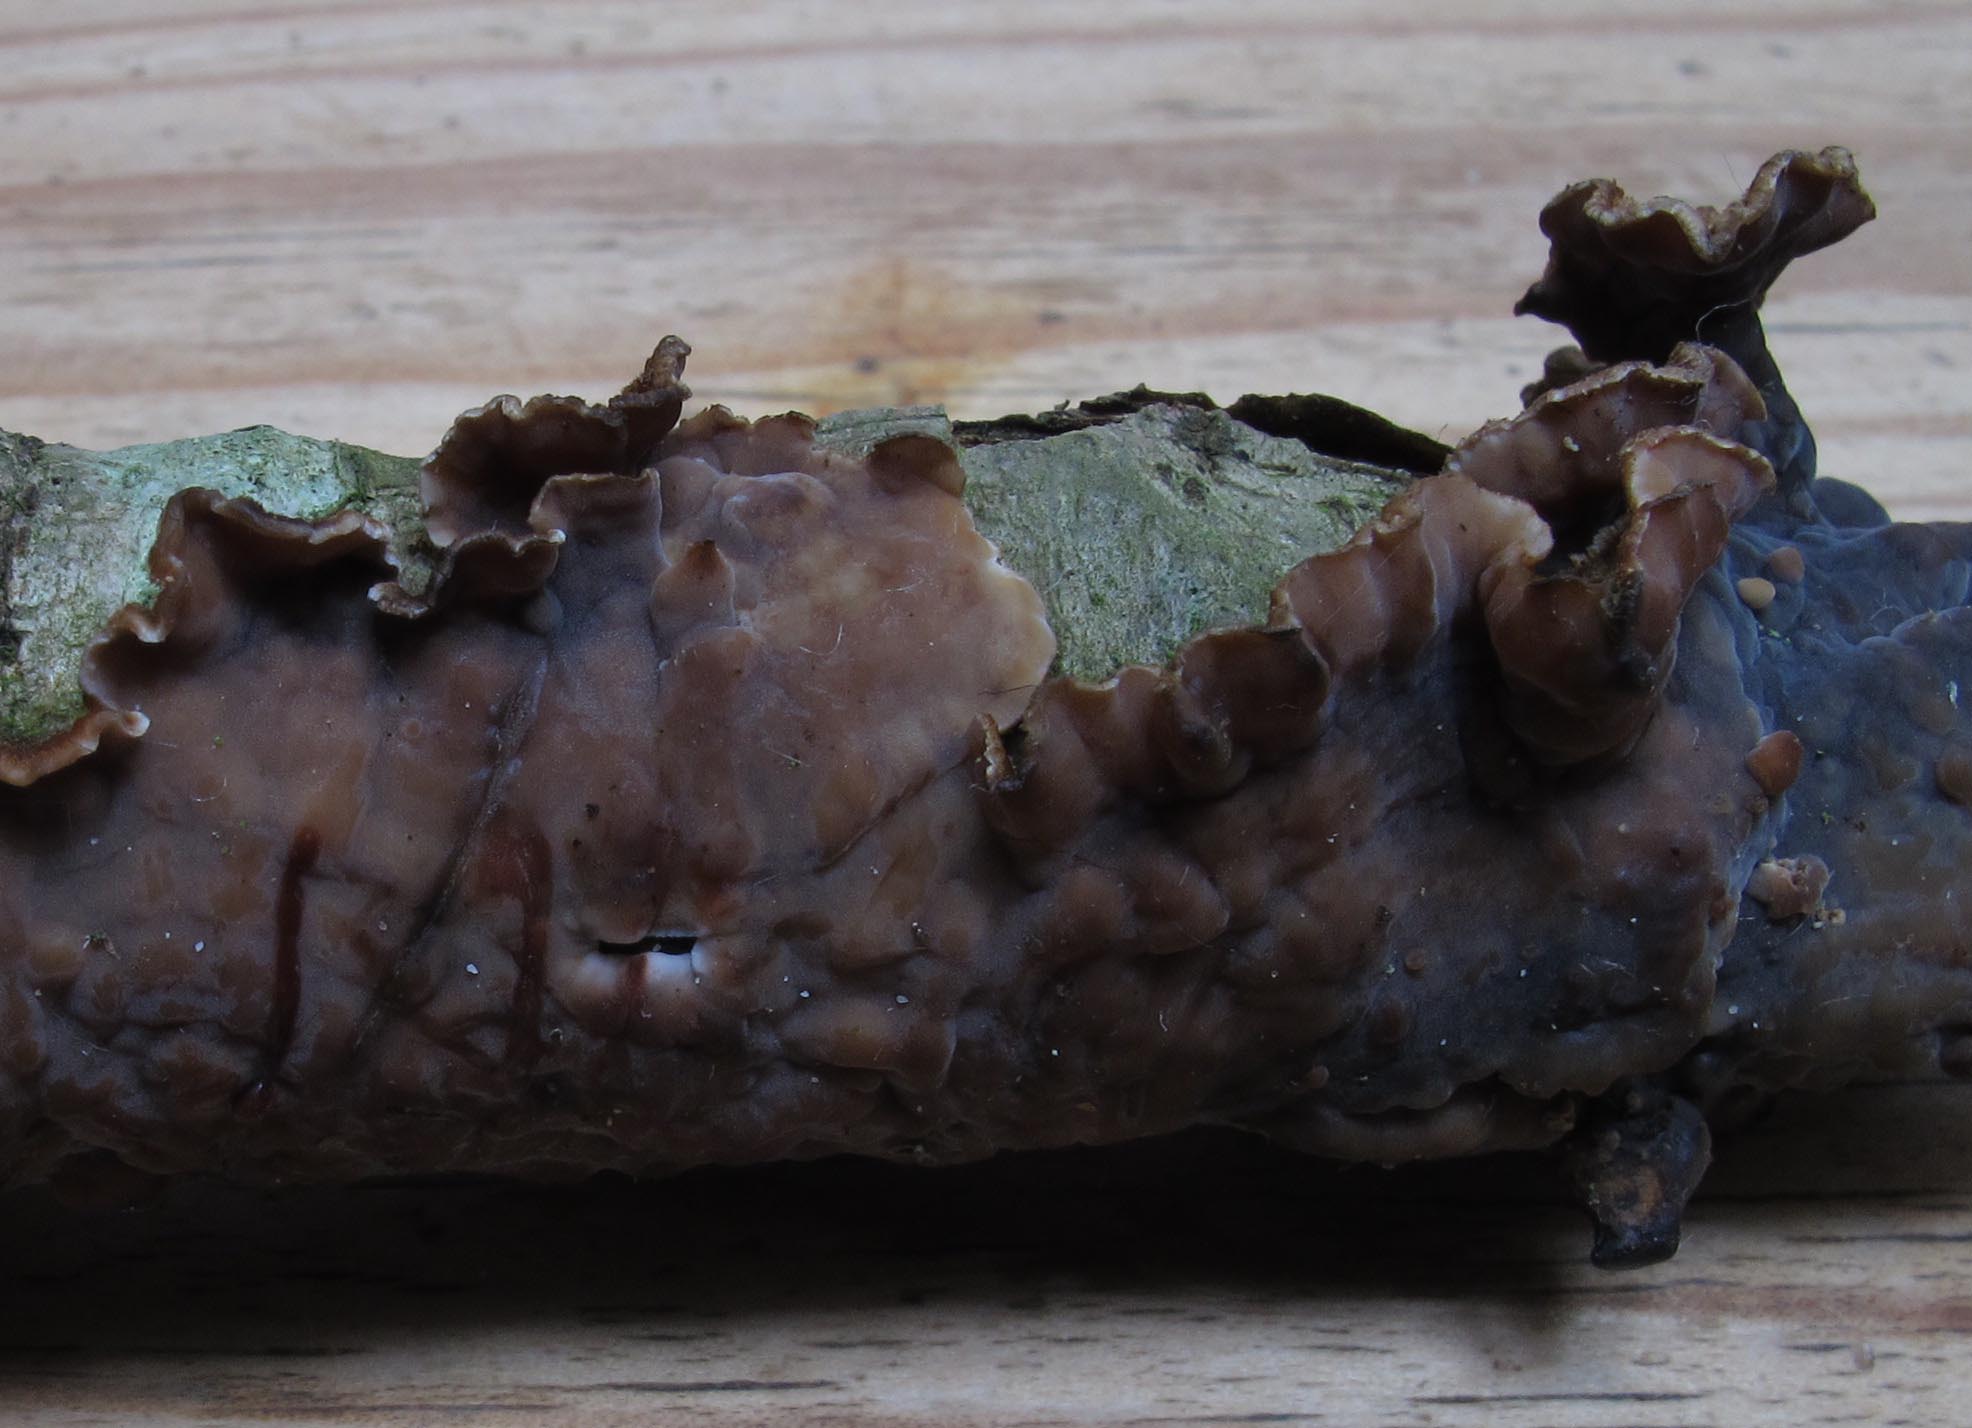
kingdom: Fungi
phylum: Basidiomycota
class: Agaricomycetes
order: Russulales
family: Stereaceae
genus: Stereum
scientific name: Stereum gausapatum
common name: tynd lædersvamp
